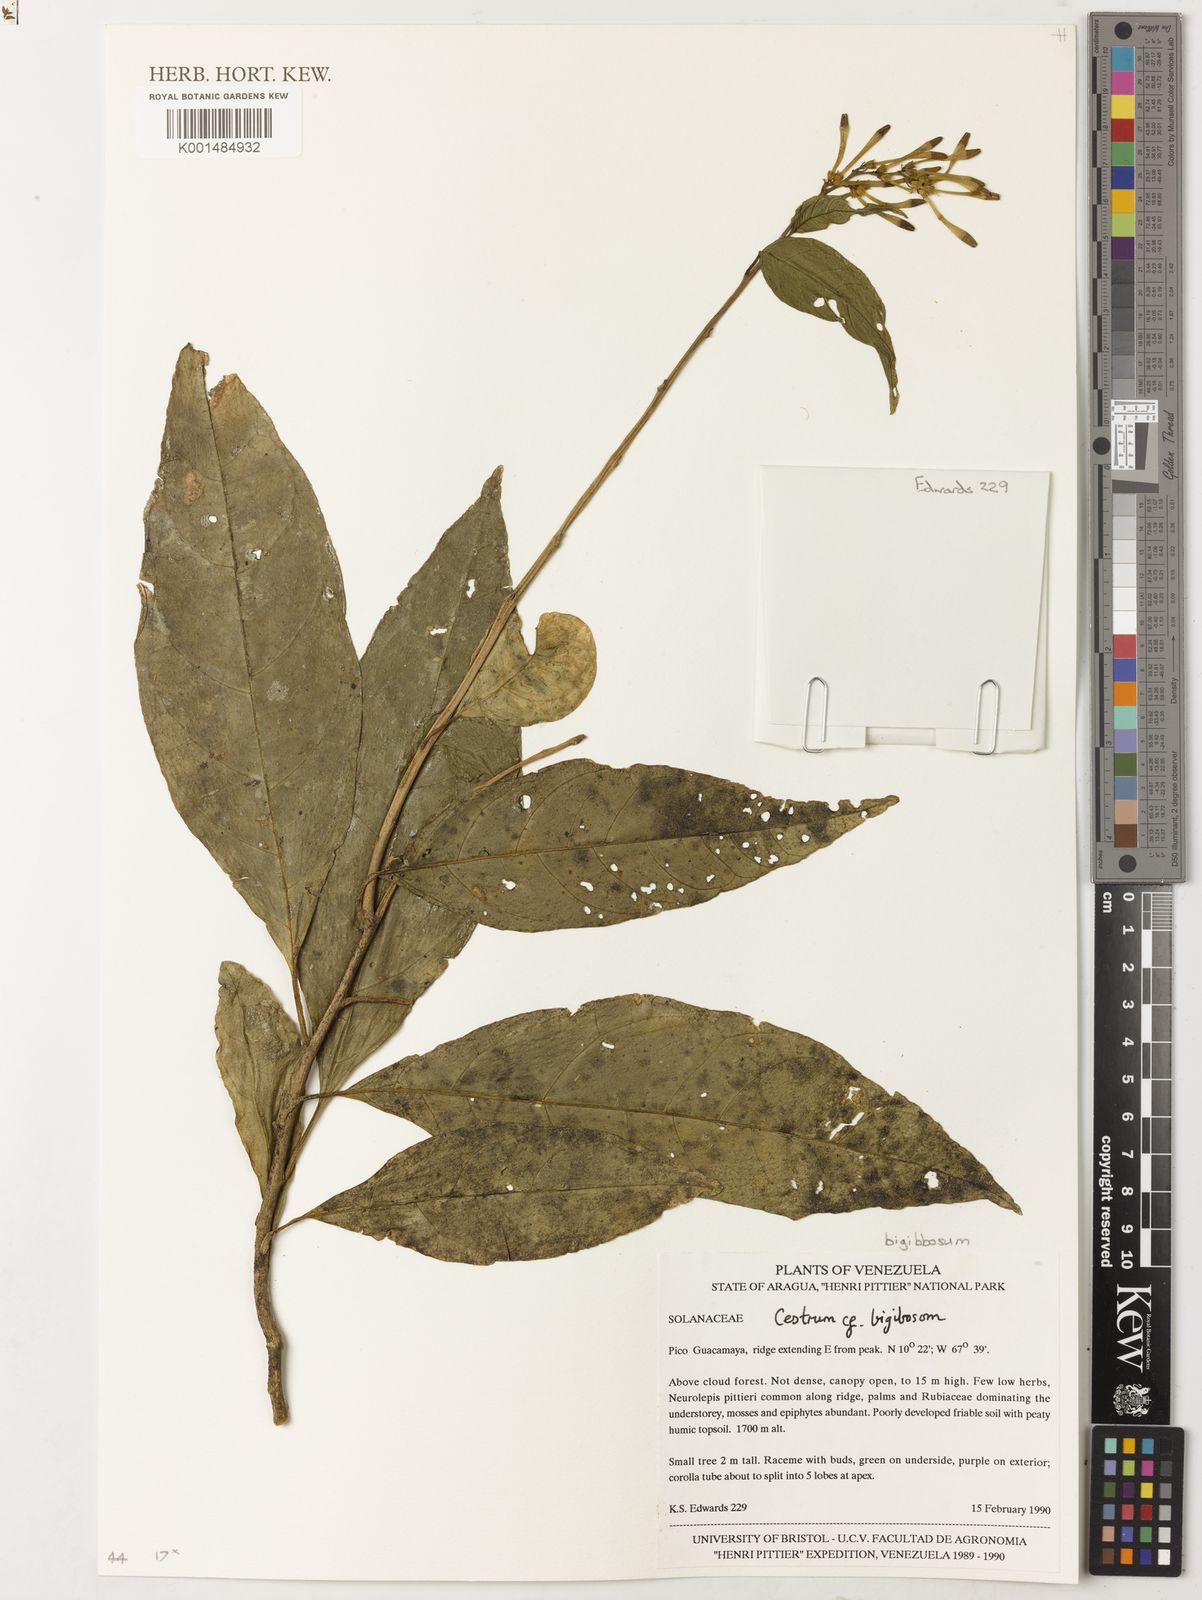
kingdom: Plantae
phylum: Tracheophyta
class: Magnoliopsida
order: Solanales
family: Solanaceae
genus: Cestrum
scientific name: Cestrum bigibbosum
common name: Bigibbous cestrum
